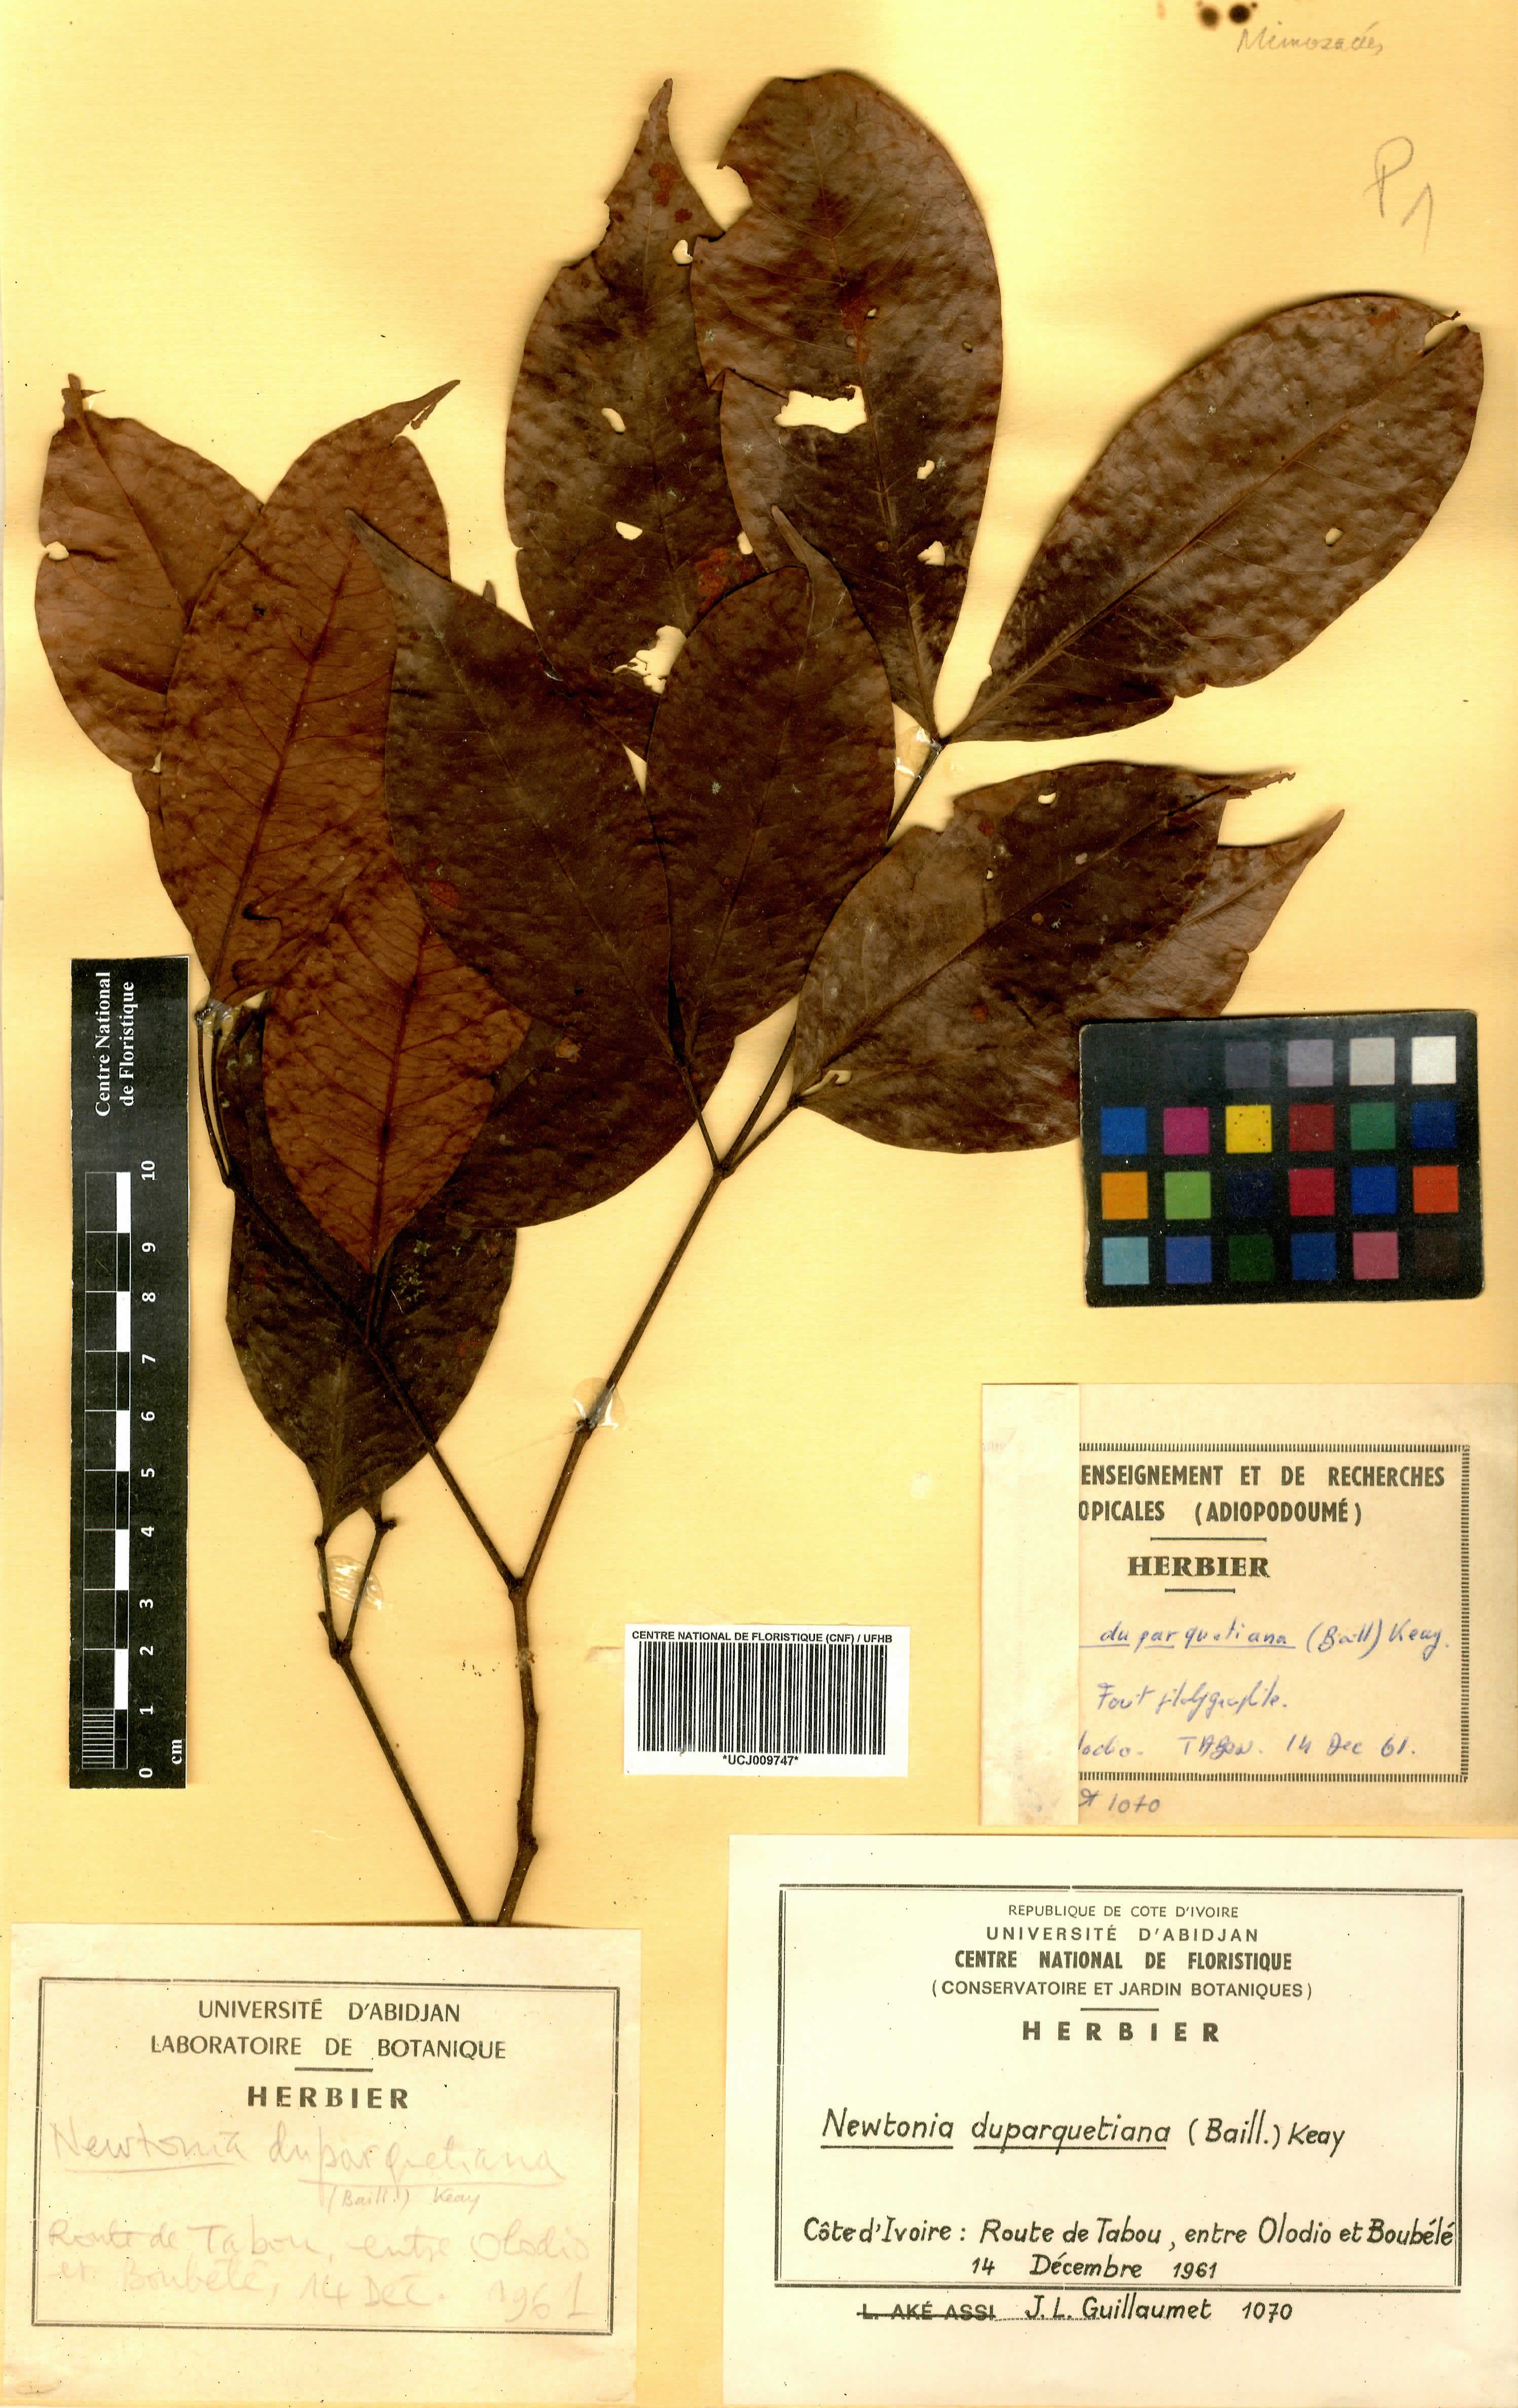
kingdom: Plantae
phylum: Tracheophyta
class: Magnoliopsida
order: Fabales
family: Fabaceae
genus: Newtonia
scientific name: Newtonia duparquetiana
